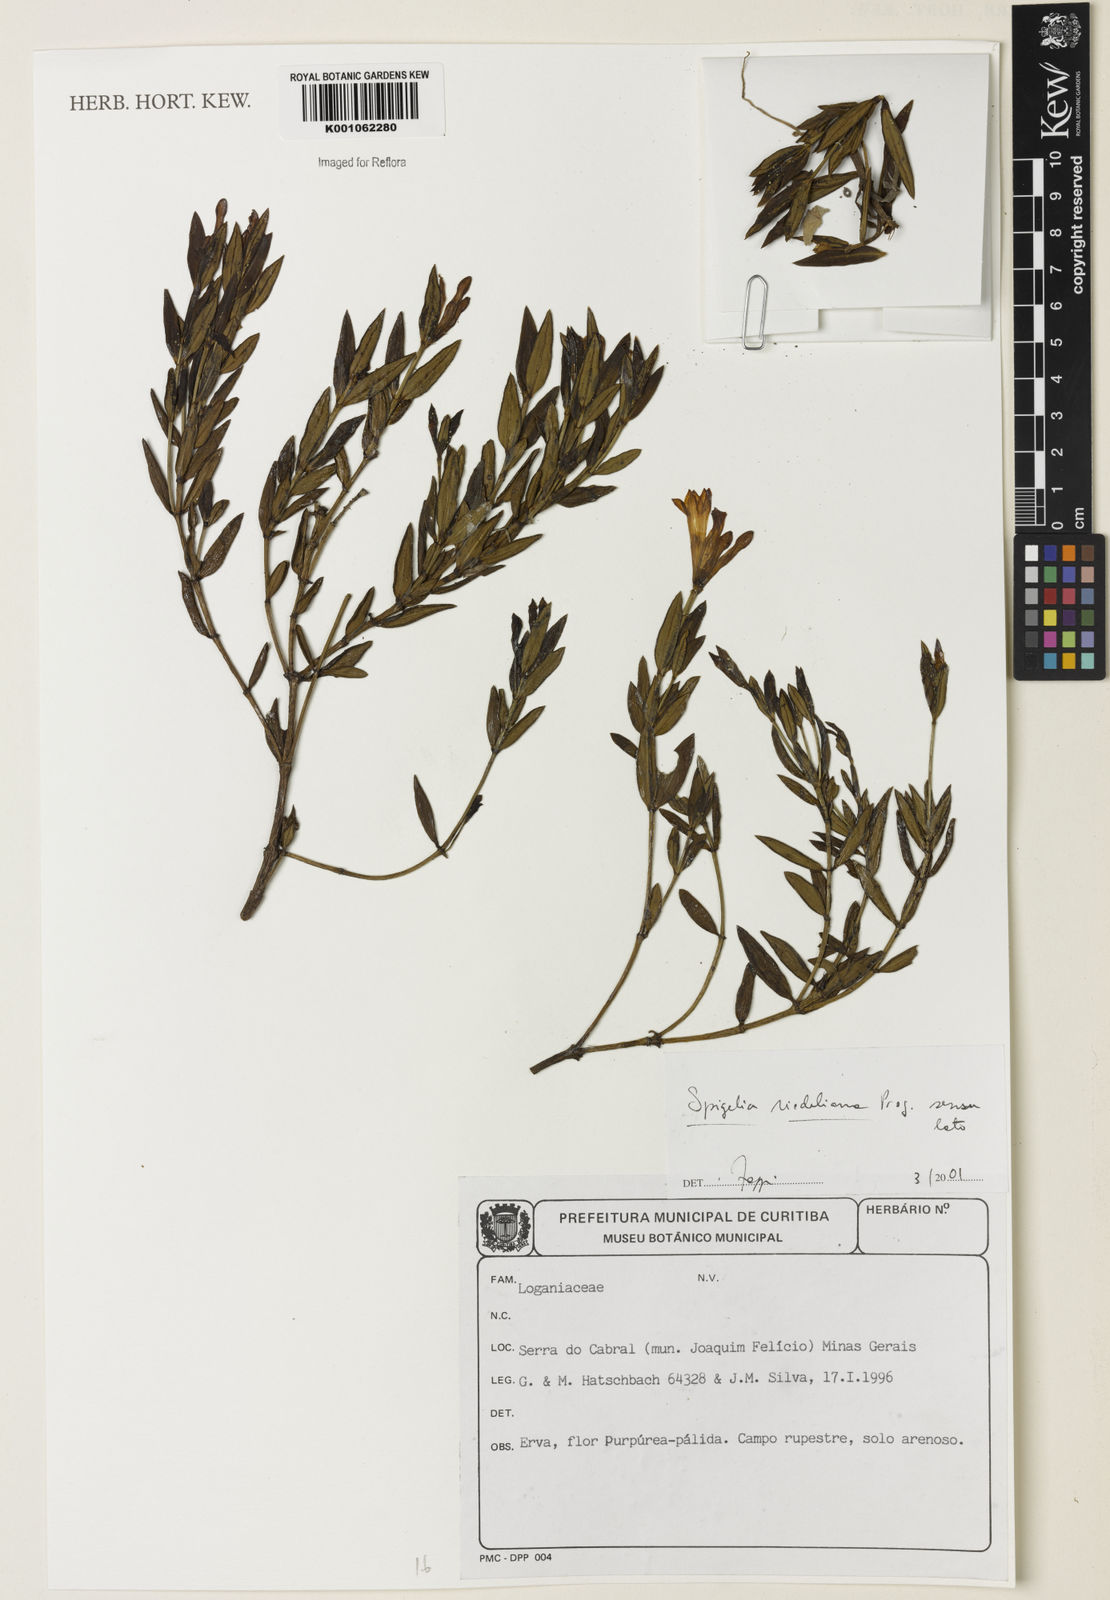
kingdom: Plantae
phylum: Tracheophyta
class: Magnoliopsida
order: Gentianales
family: Loganiaceae
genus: Spigelia
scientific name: Spigelia riedeliana
